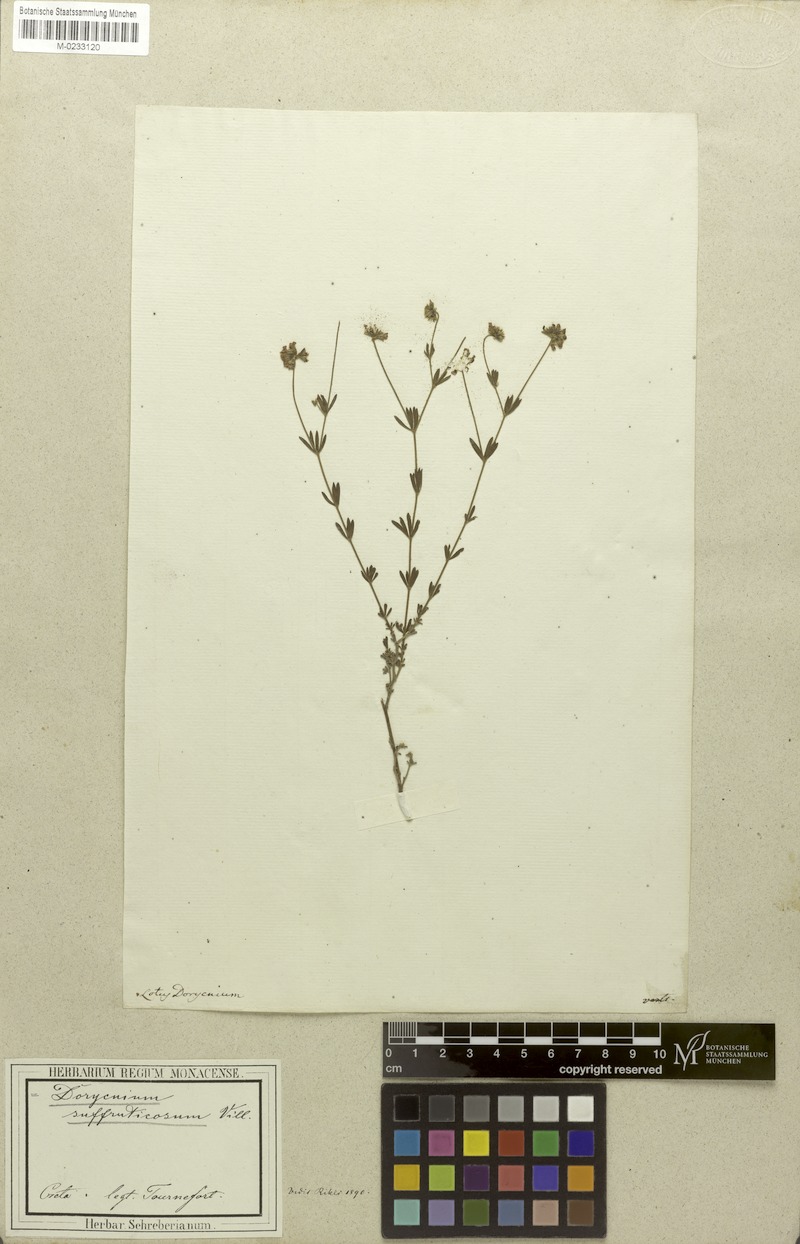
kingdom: Plantae
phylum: Tracheophyta
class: Magnoliopsida
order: Fabales
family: Fabaceae
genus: Lotus
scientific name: Lotus germanicus
